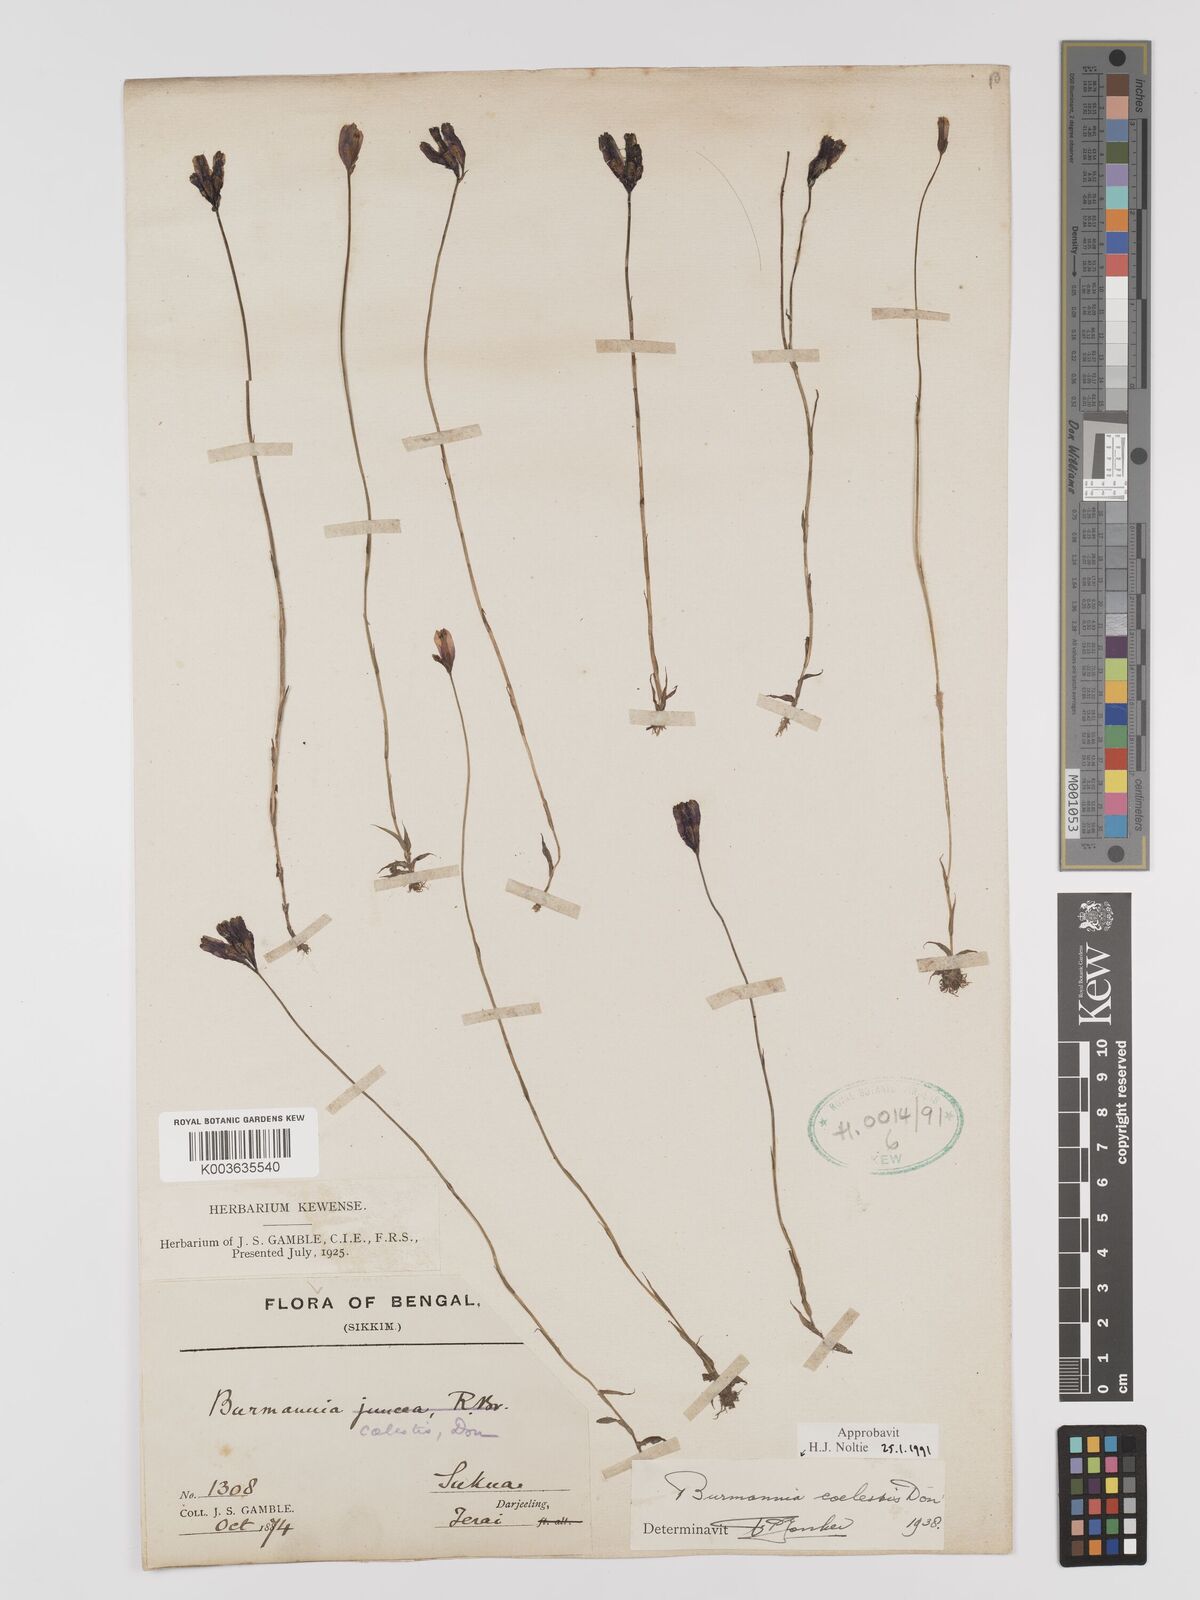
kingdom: Plantae
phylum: Tracheophyta
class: Liliopsida
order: Dioscoreales
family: Burmanniaceae
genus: Burmannia
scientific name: Burmannia coelestis
